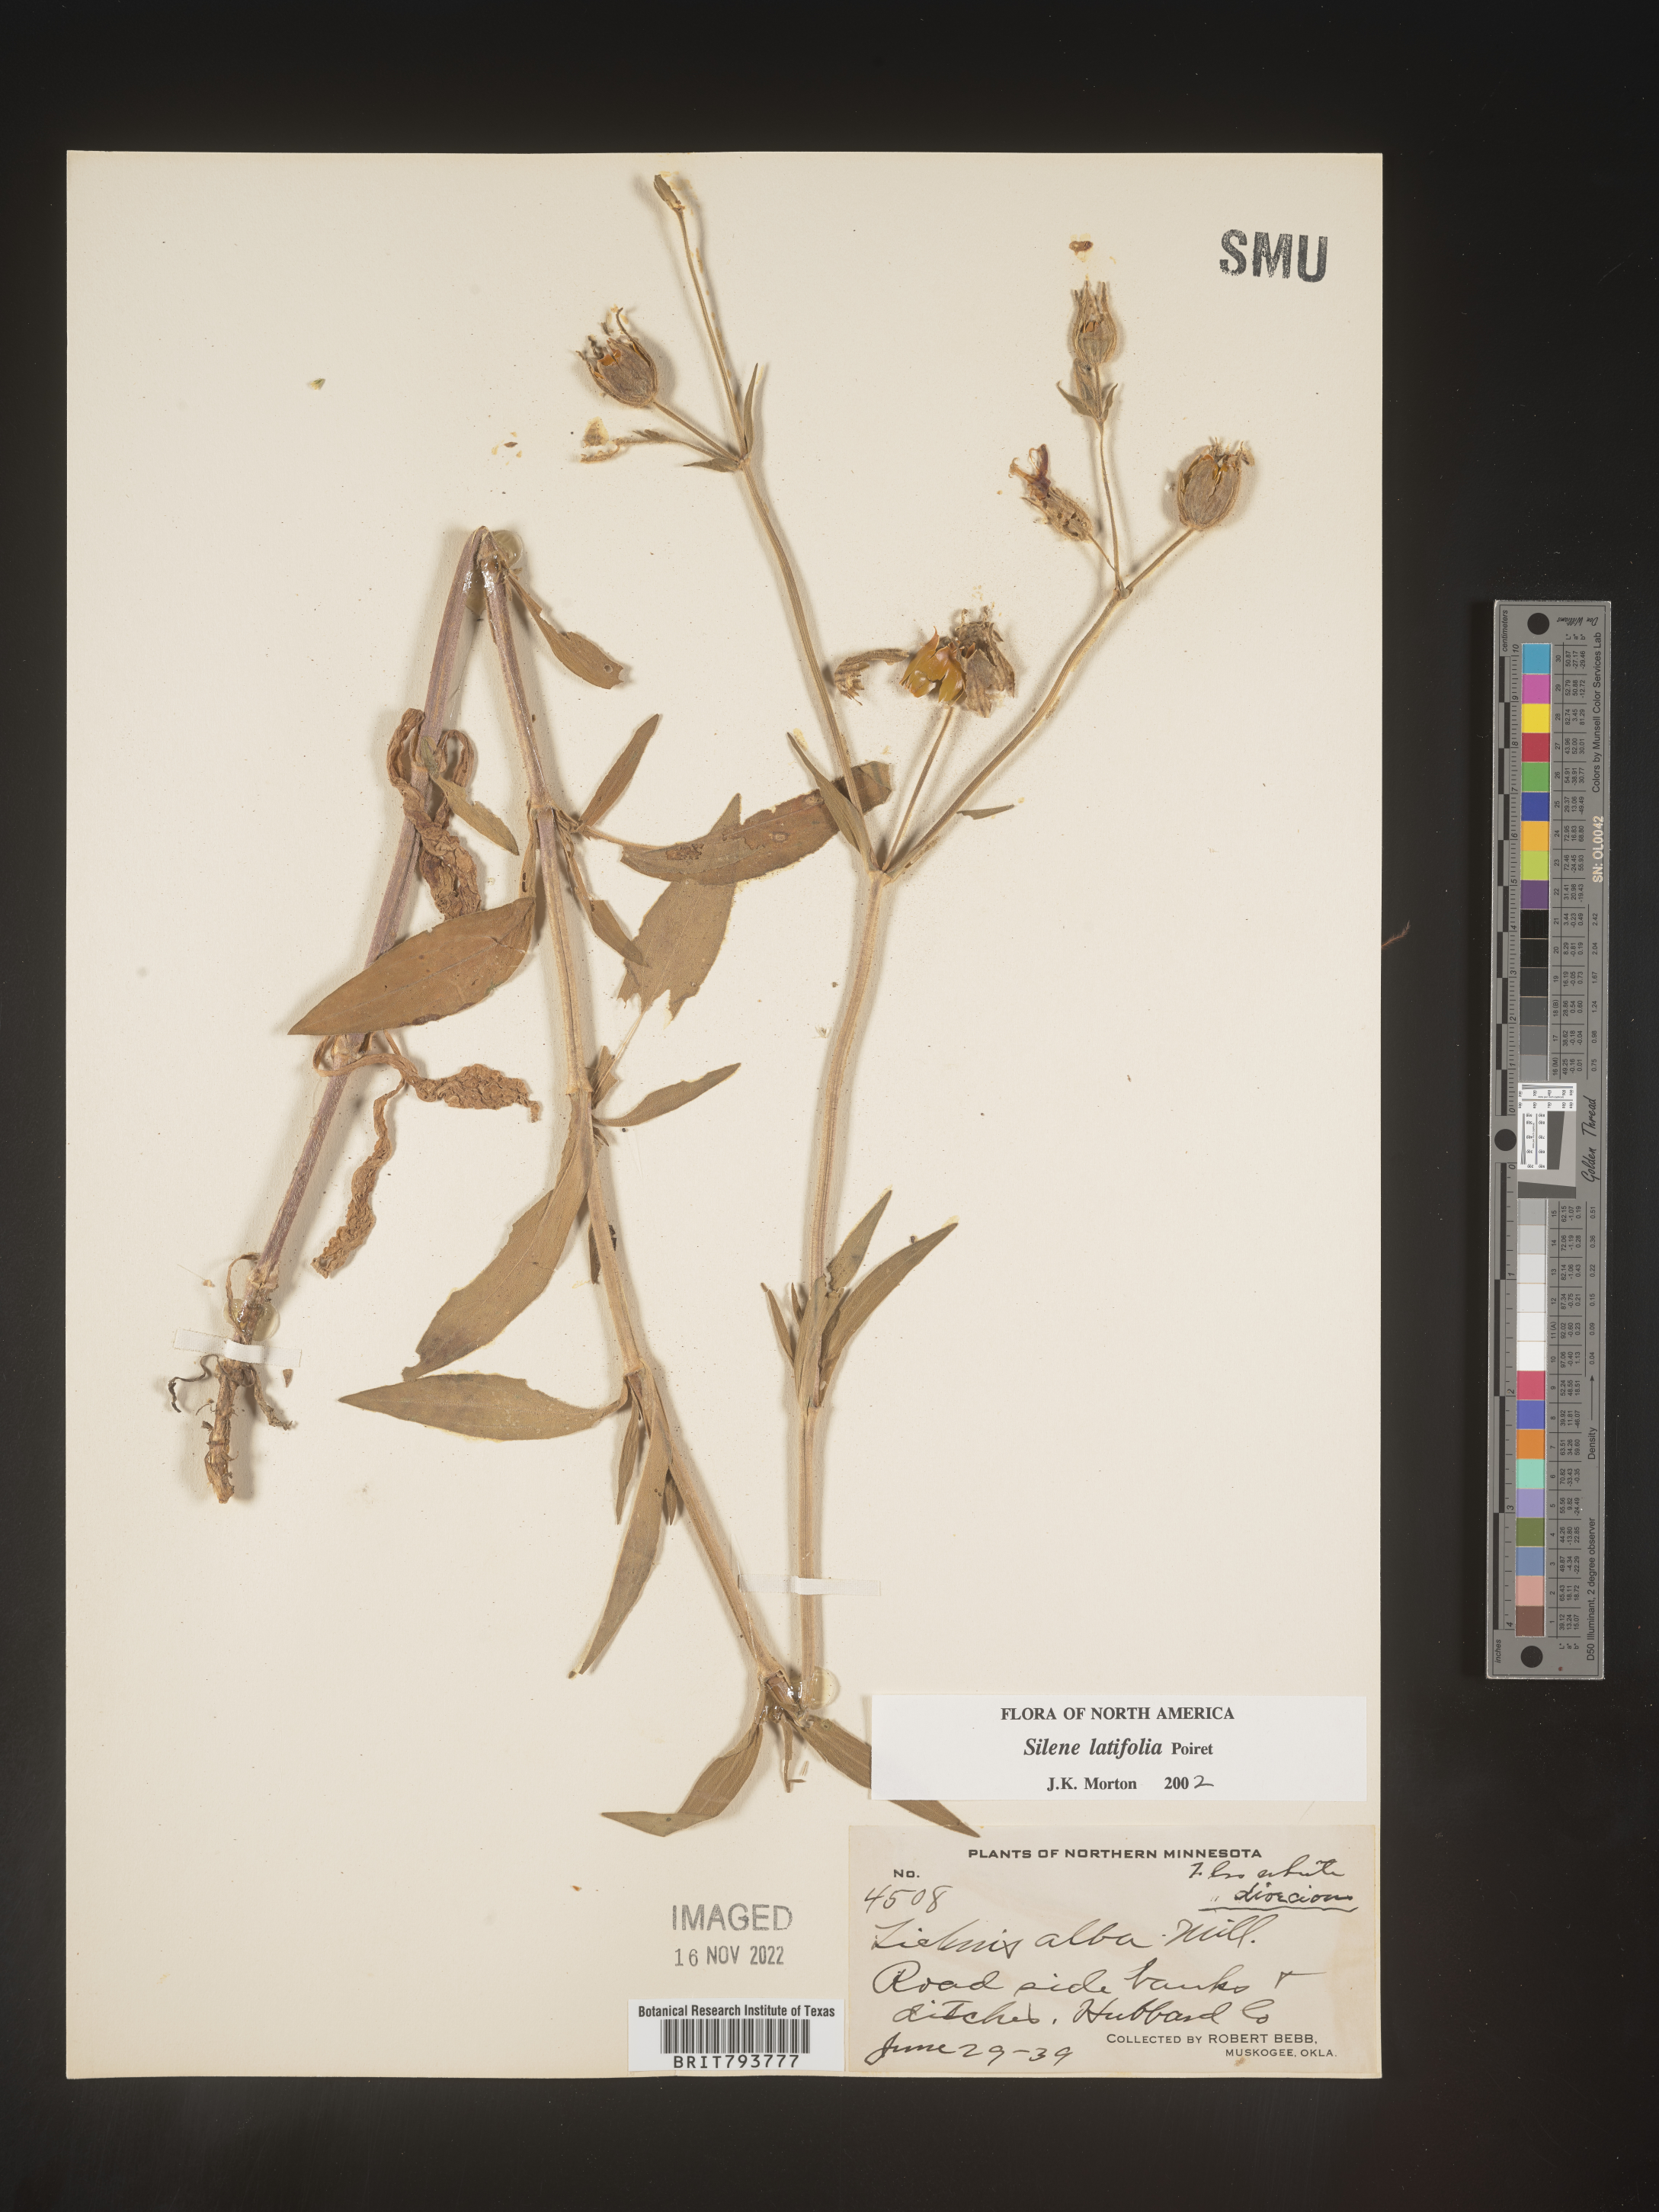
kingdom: Plantae
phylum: Tracheophyta
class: Magnoliopsida
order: Caryophyllales
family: Caryophyllaceae
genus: Silene
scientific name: Silene latifolia
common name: White campion
